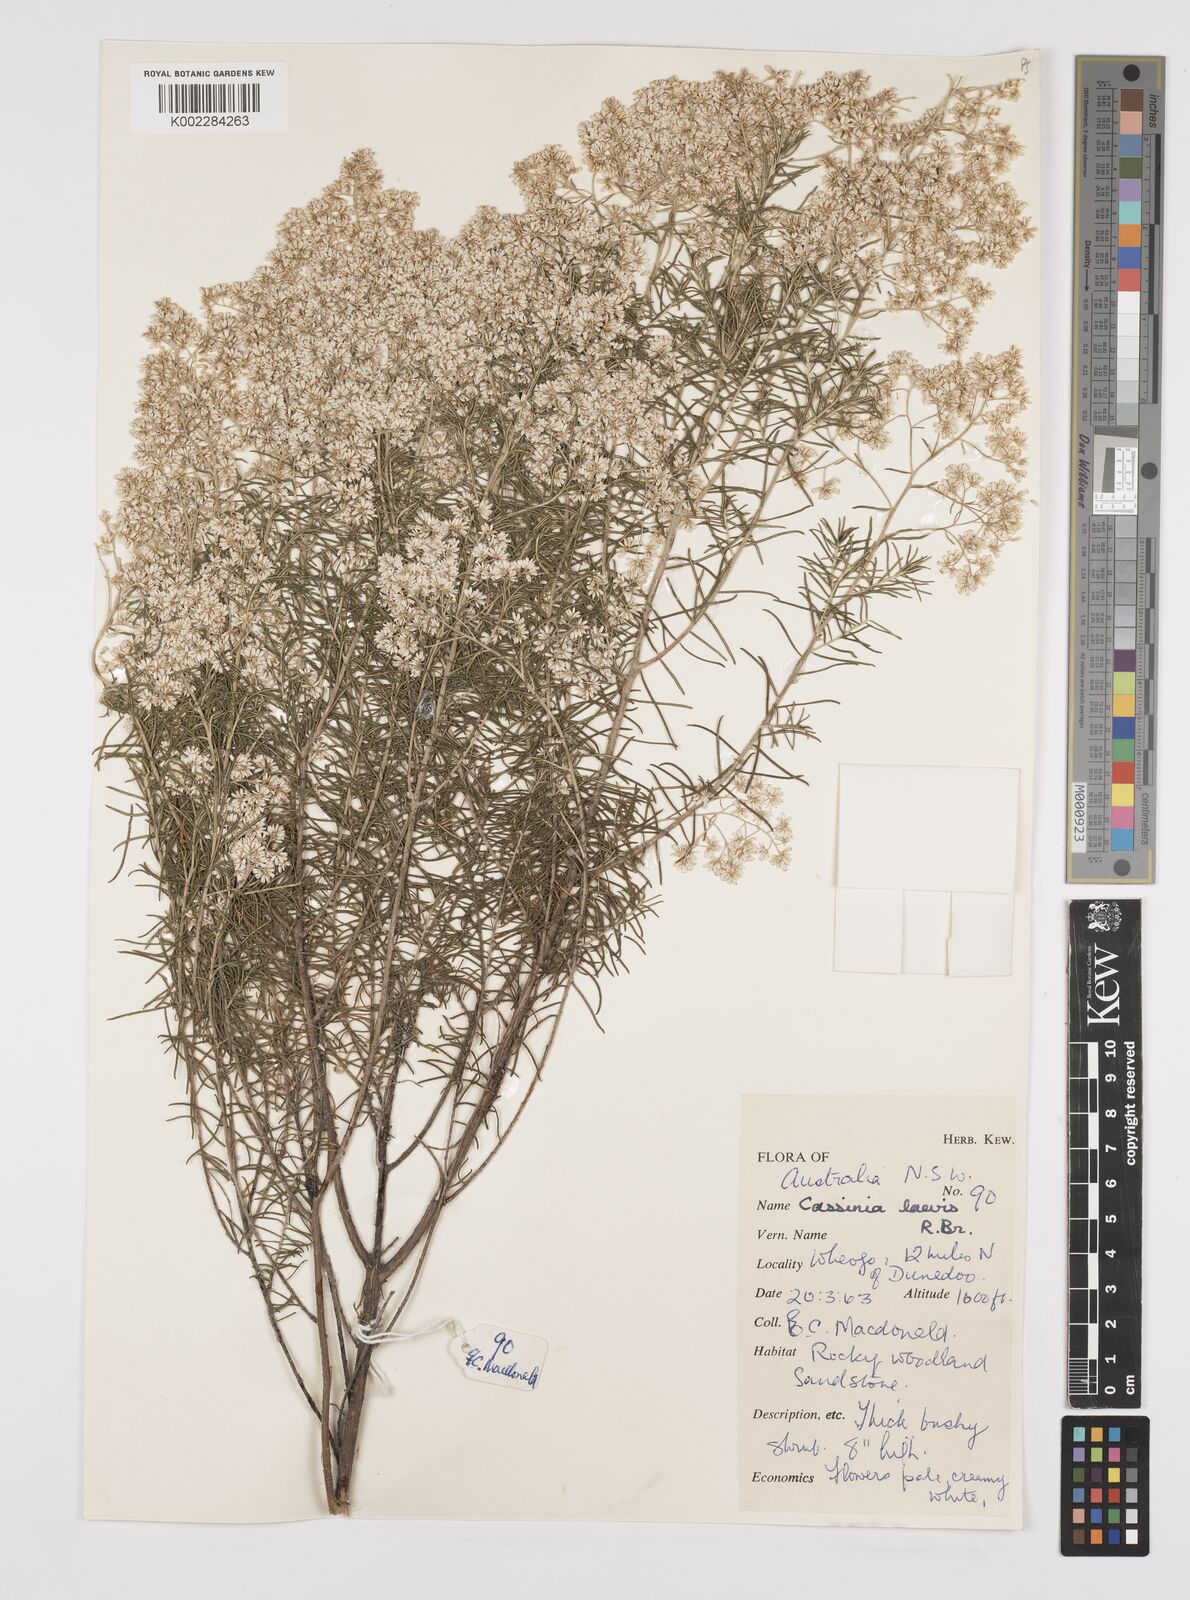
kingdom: Plantae
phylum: Tracheophyta
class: Magnoliopsida
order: Asterales
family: Asteraceae
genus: Cassinia
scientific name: Cassinia laevis
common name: Coughbush
